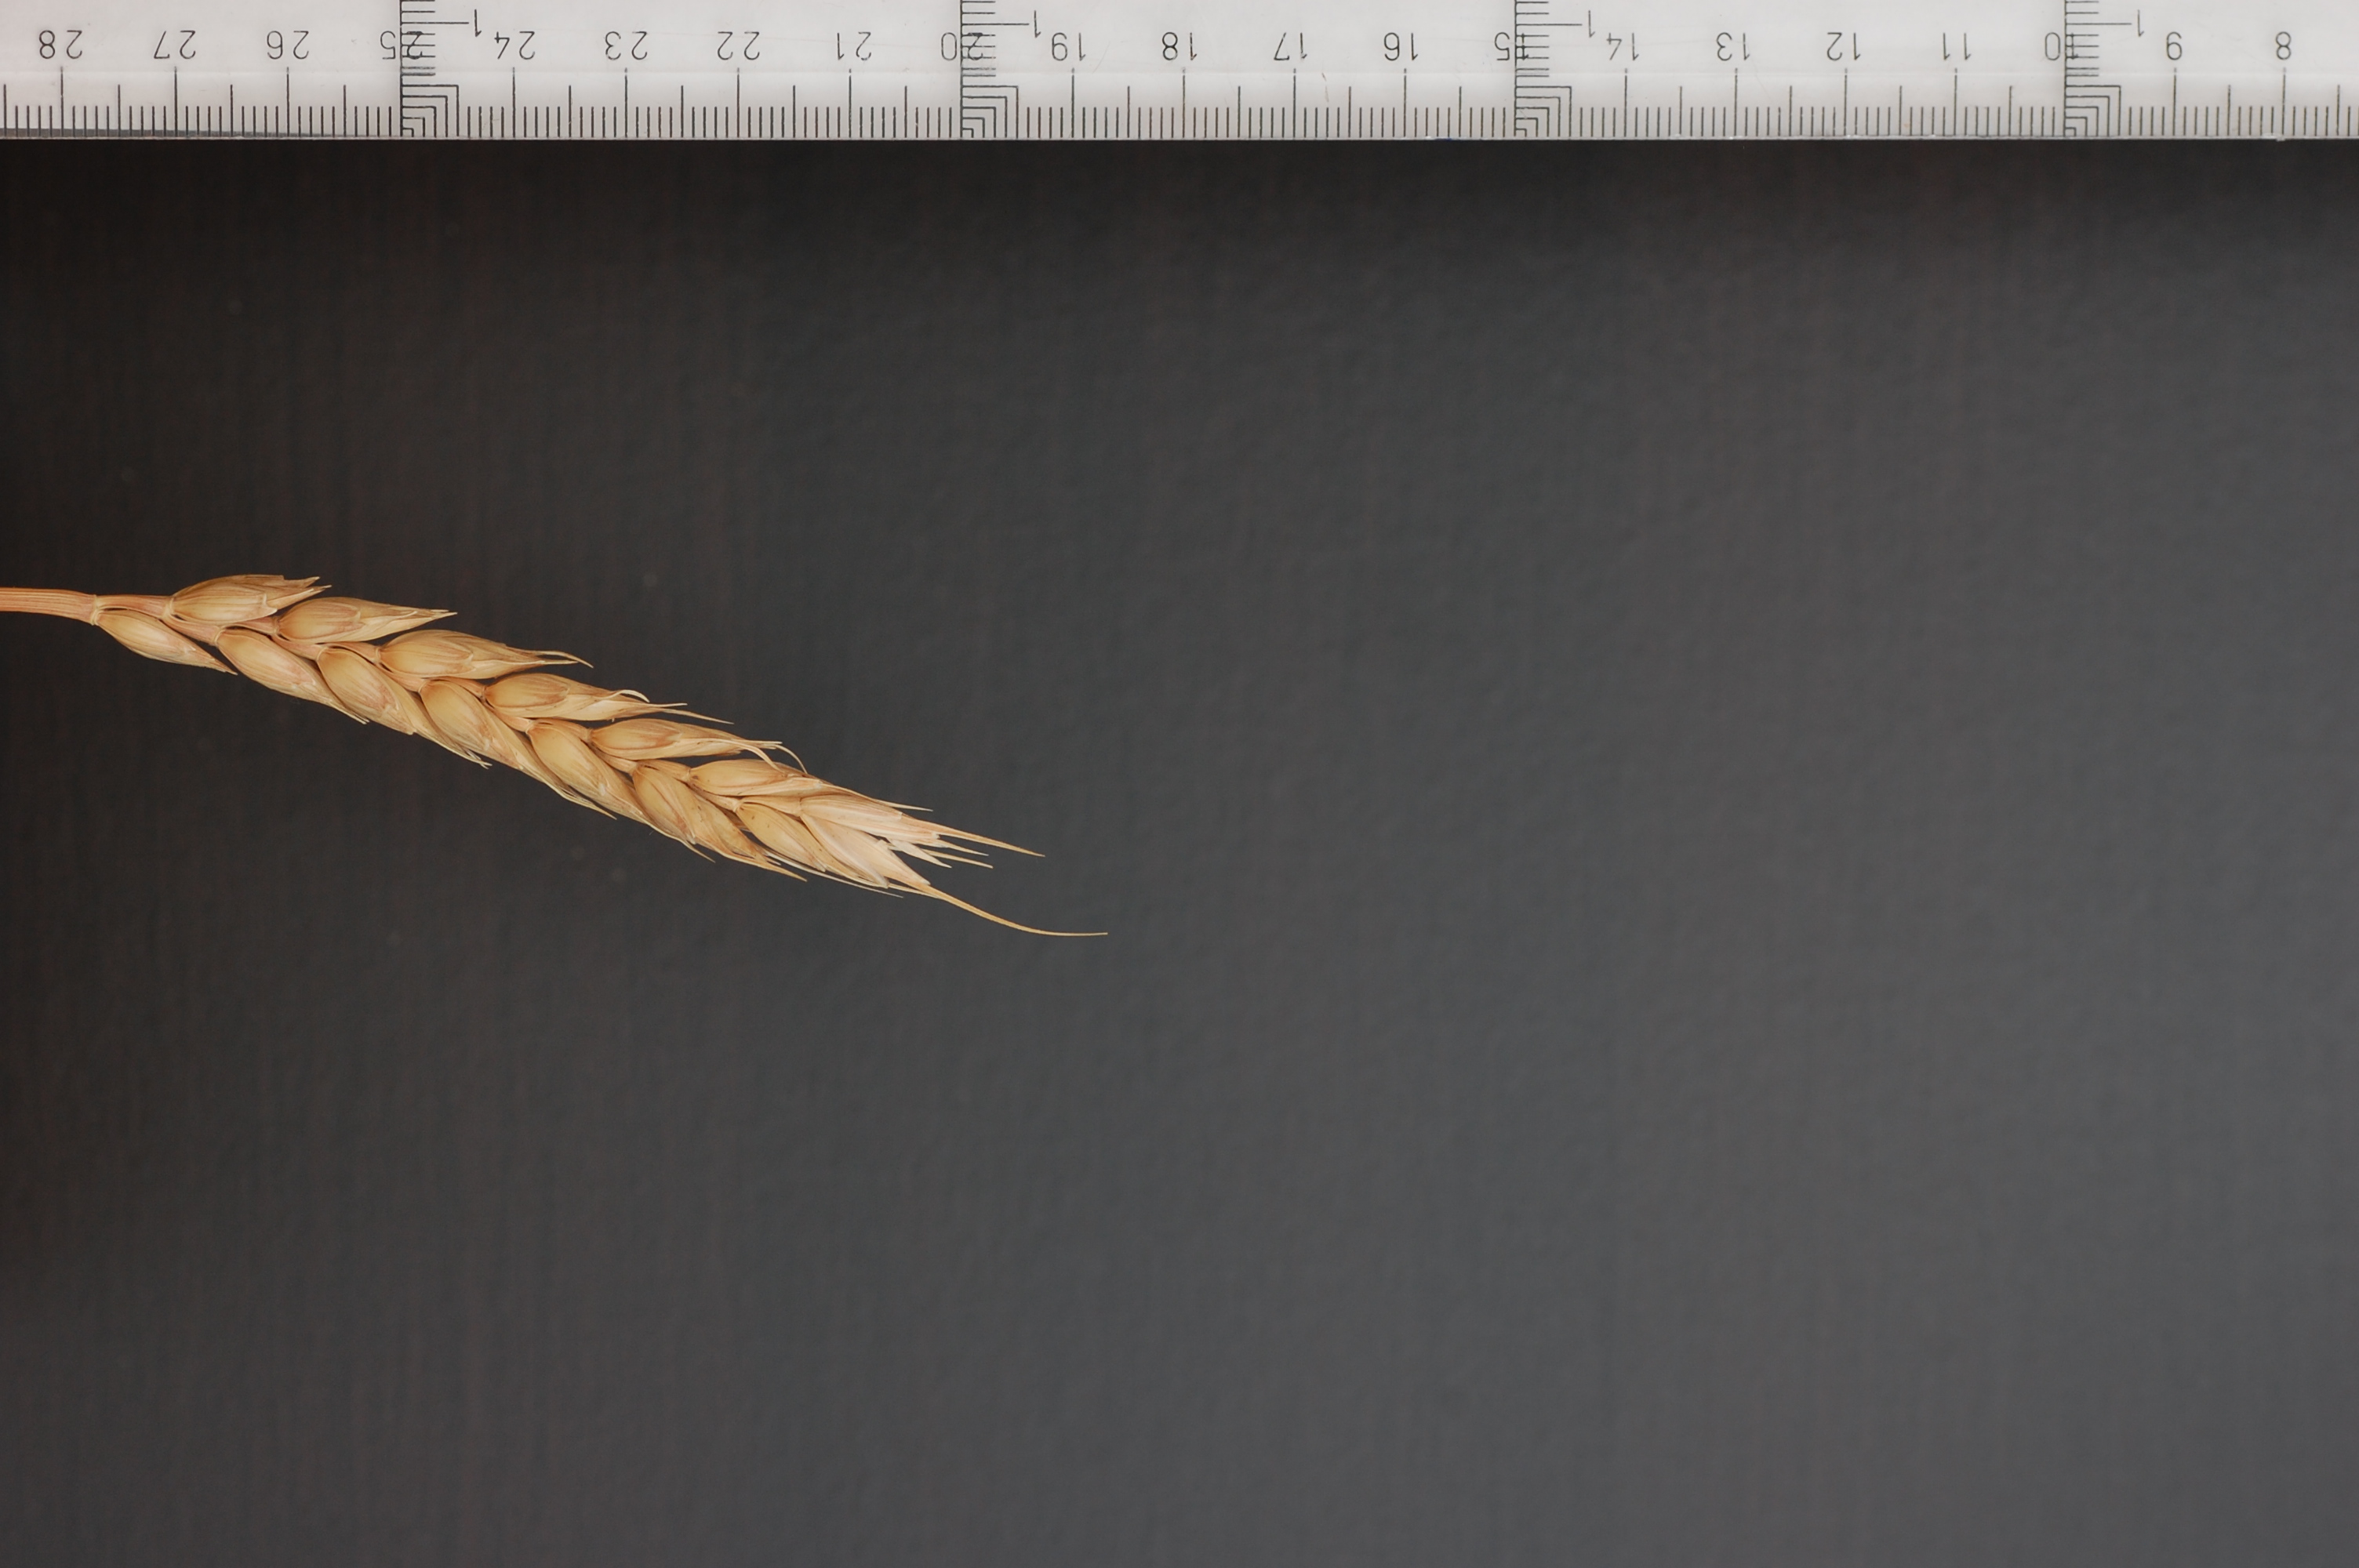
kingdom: Plantae
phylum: Tracheophyta
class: Liliopsida
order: Poales
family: Poaceae
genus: Triticum
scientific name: Triticum aestivum
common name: Common wheat
